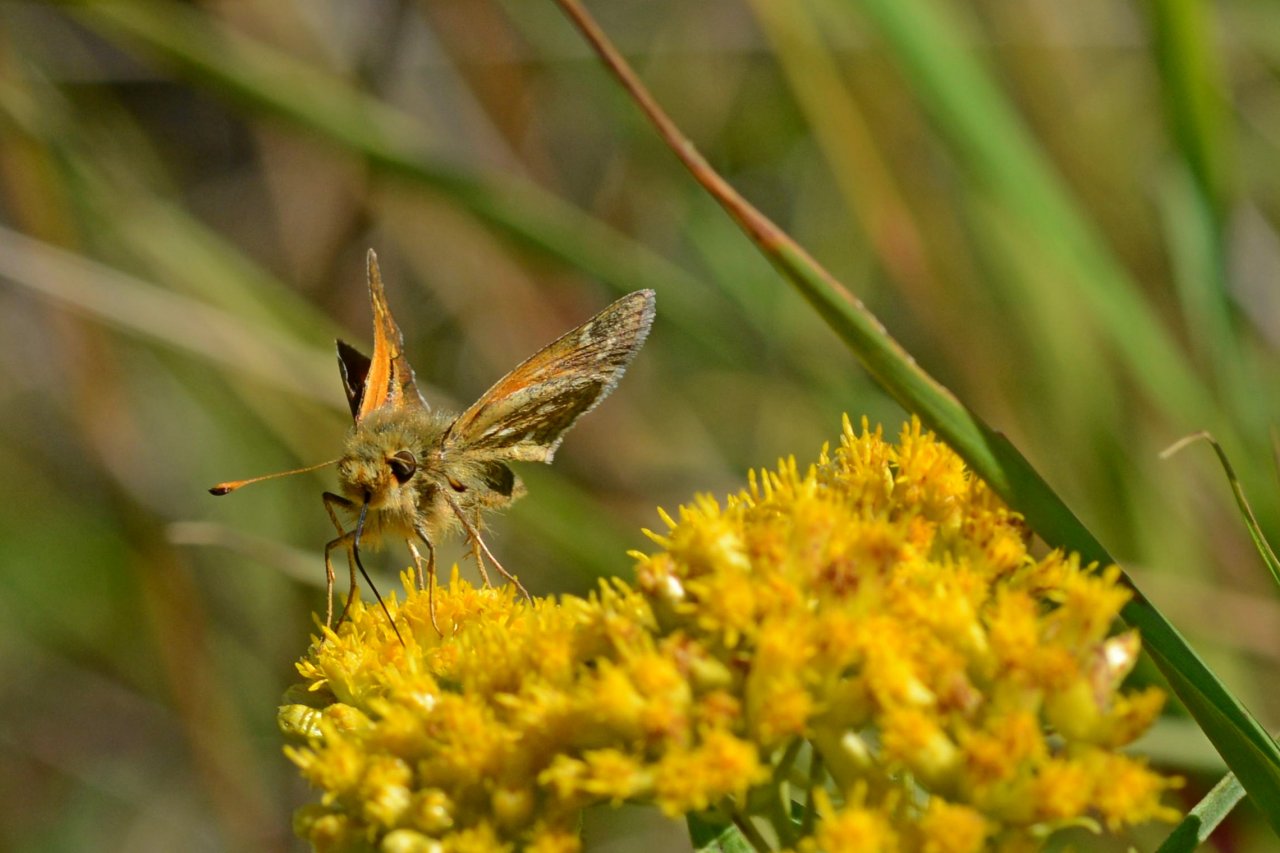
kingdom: Animalia
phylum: Arthropoda
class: Insecta
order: Lepidoptera
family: Hesperiidae
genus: Hesperia
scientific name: Hesperia comma
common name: Common Branded Skipper
